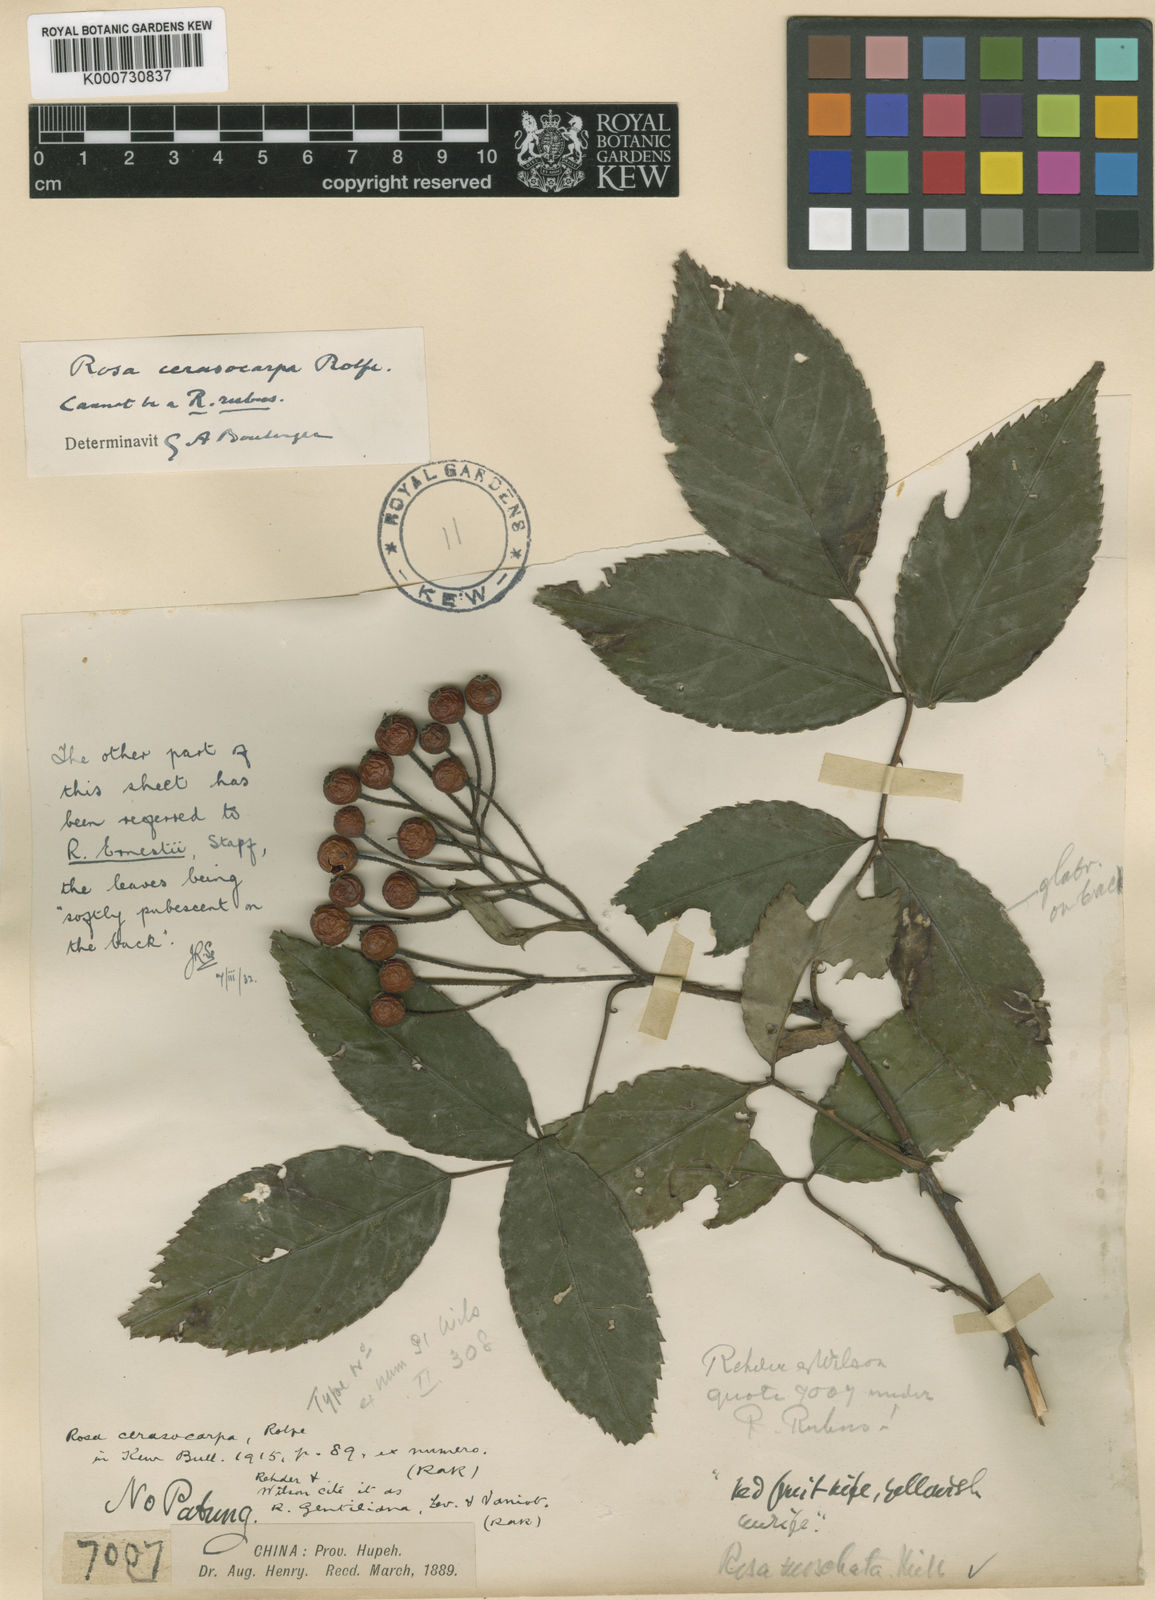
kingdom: Plantae
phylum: Tracheophyta
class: Magnoliopsida
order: Rosales
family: Rosaceae
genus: Rosa
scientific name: Rosa cerasocarpa
